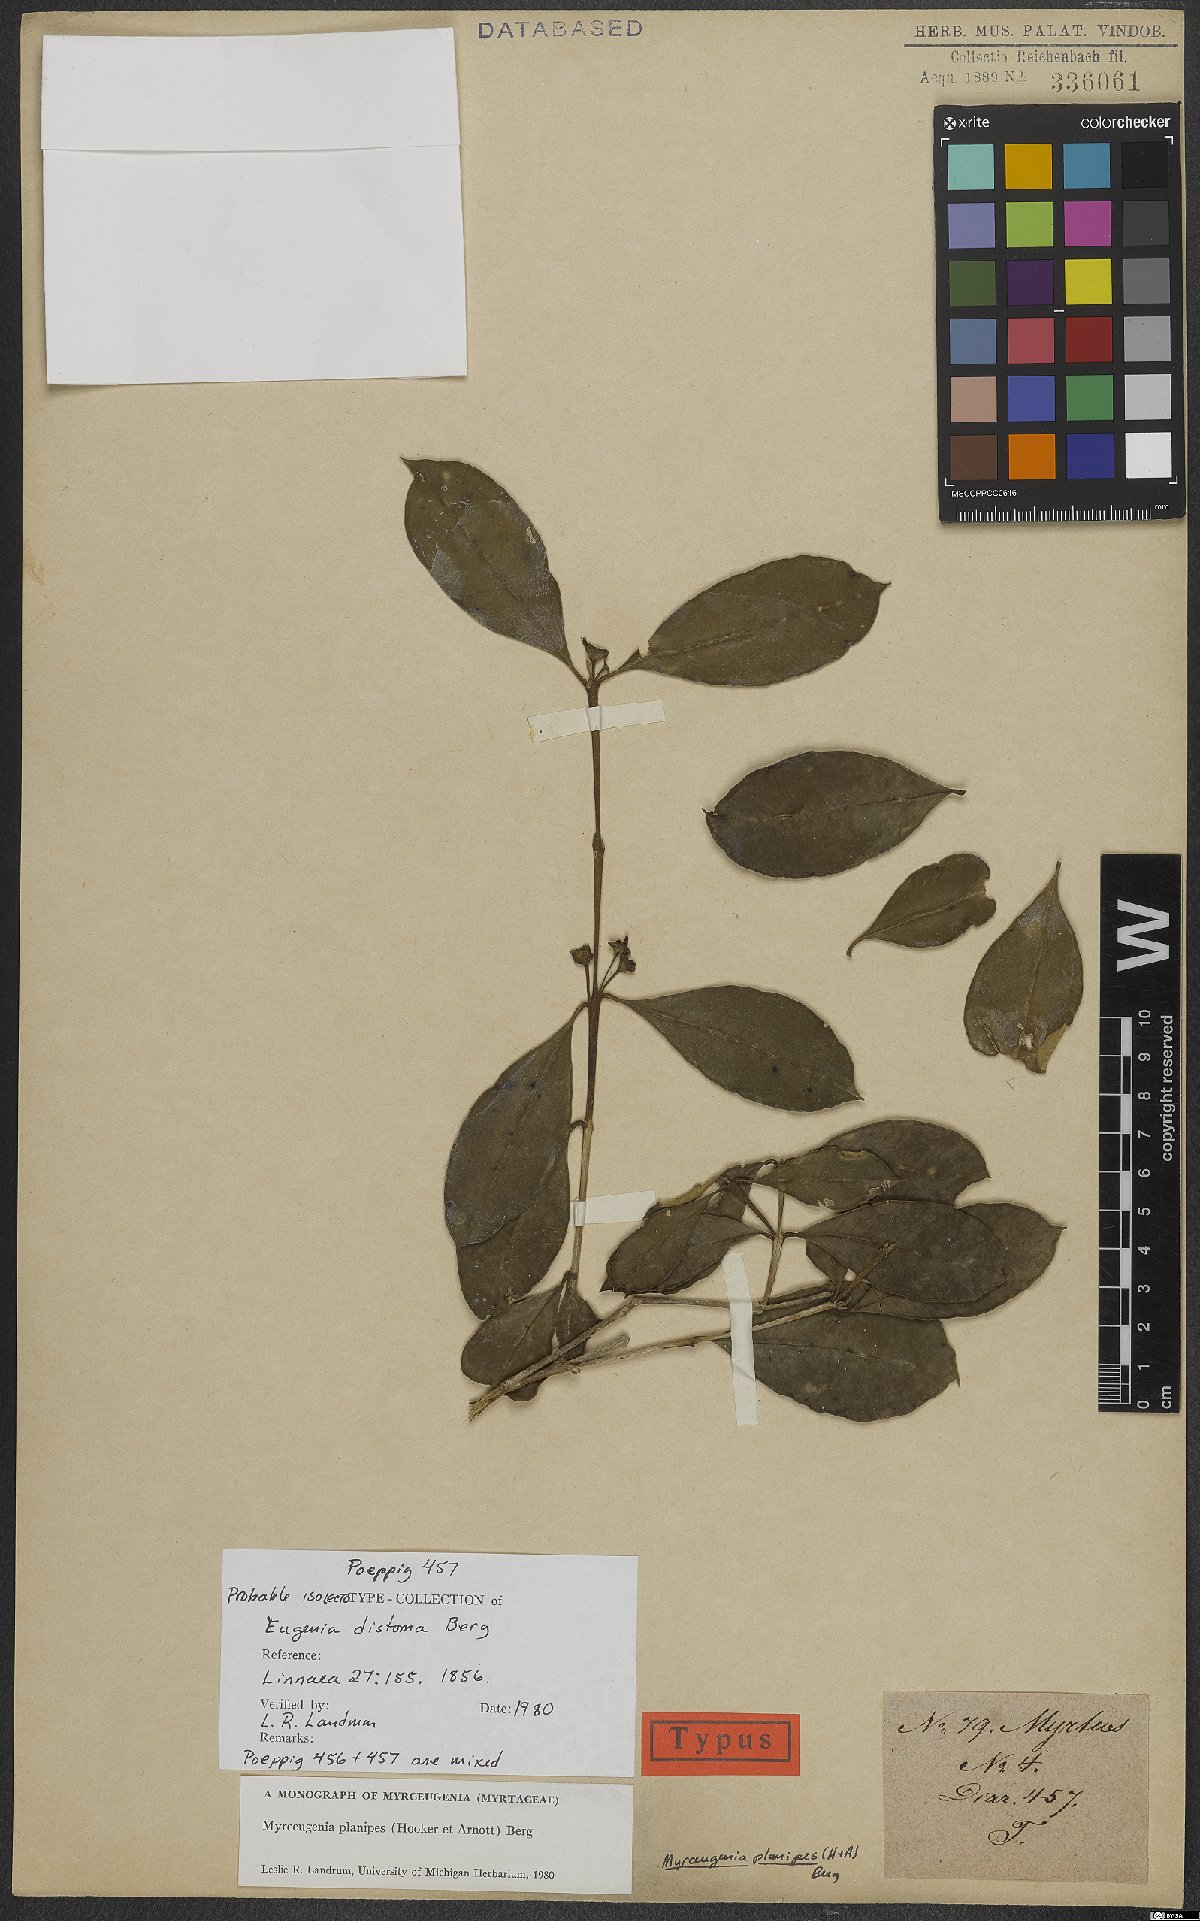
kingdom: Plantae
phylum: Tracheophyta
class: Magnoliopsida
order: Myrtales
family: Myrtaceae
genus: Myrceugenia
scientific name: Myrceugenia planipes
